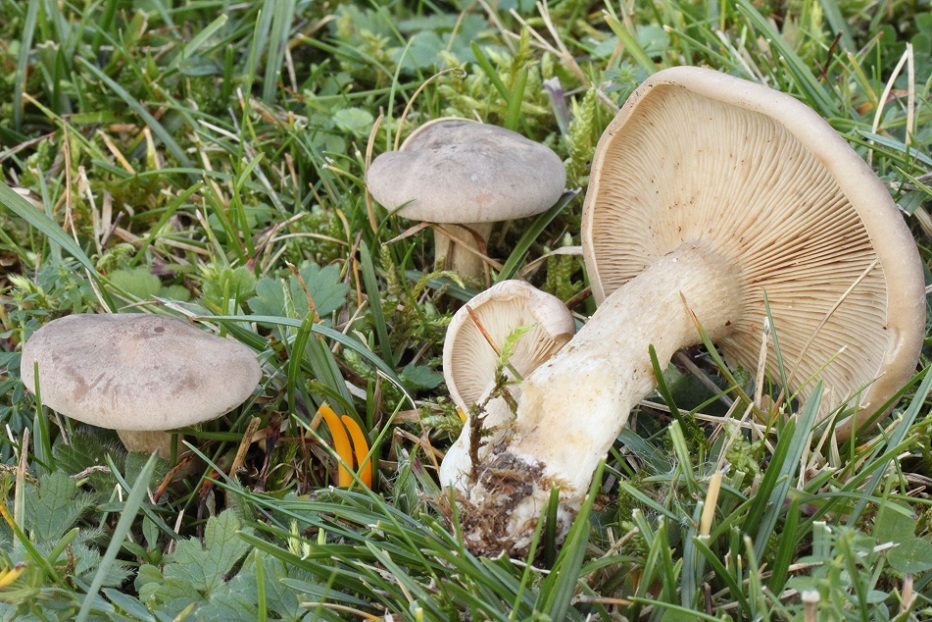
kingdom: Fungi
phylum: Basidiomycota
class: Agaricomycetes
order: Agaricales
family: Tricholomataceae
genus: Lepista
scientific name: Lepista panaeolus
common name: marmoreret hekseringshat
